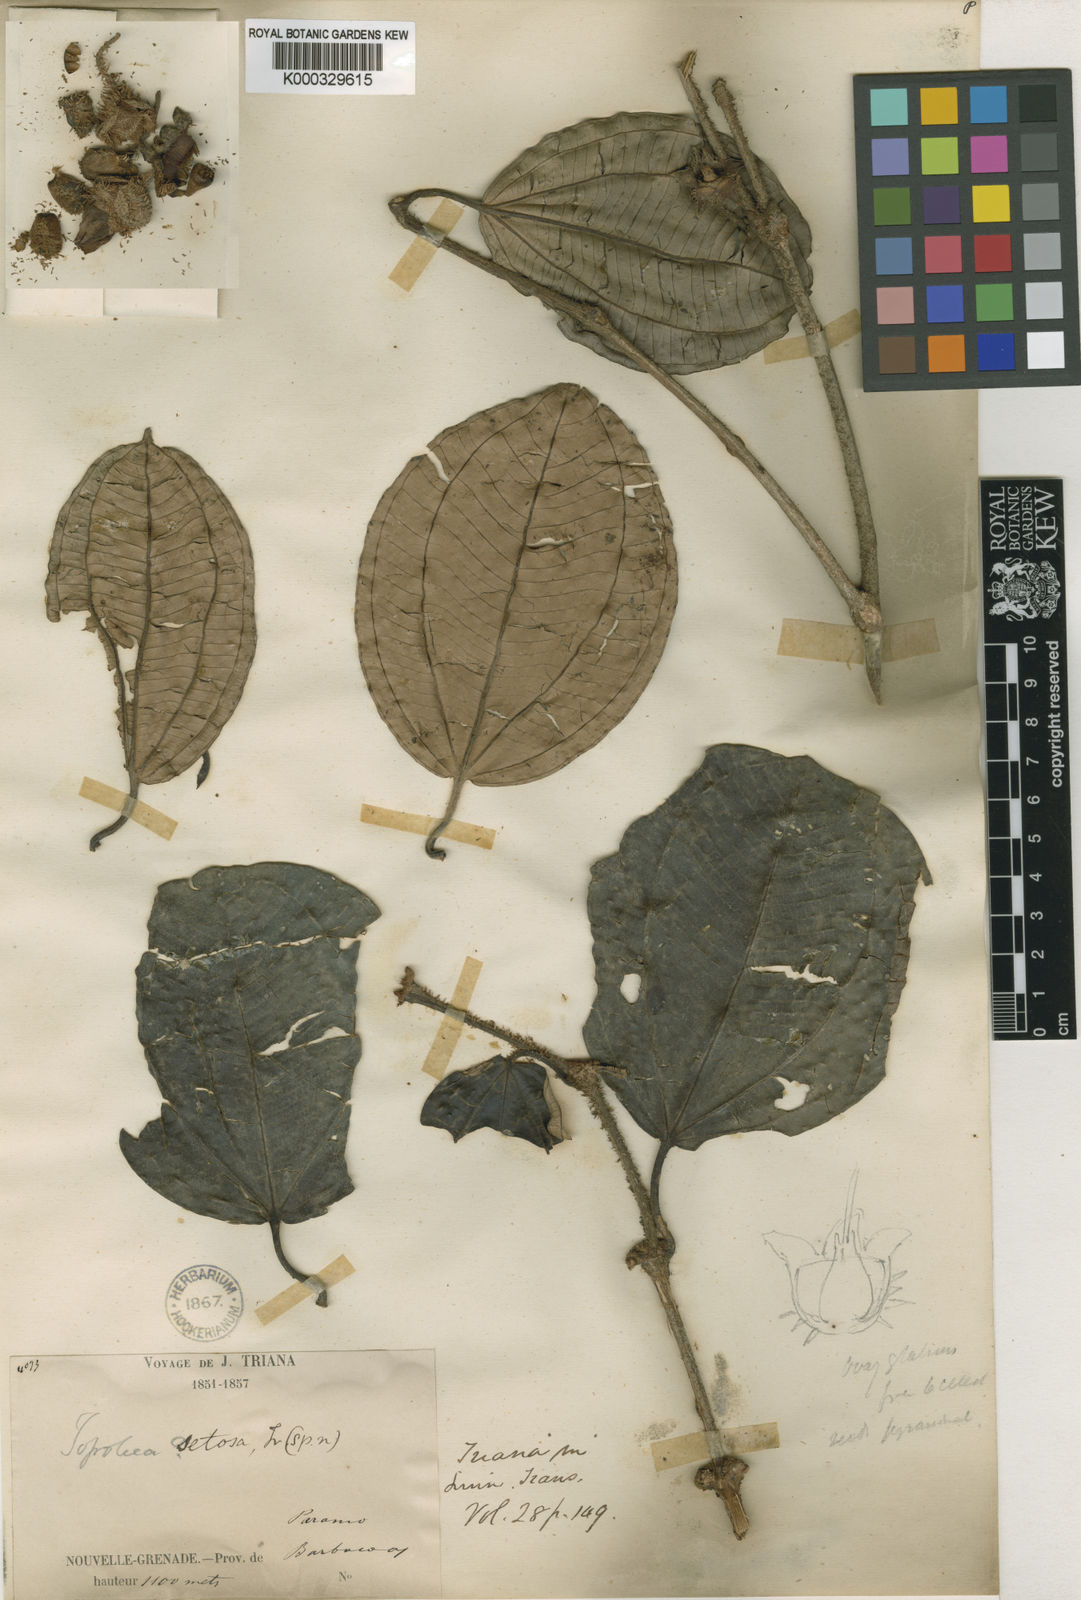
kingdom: Plantae
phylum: Tracheophyta
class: Magnoliopsida
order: Myrtales
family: Melastomataceae
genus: Blakea
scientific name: Blakea setosa
